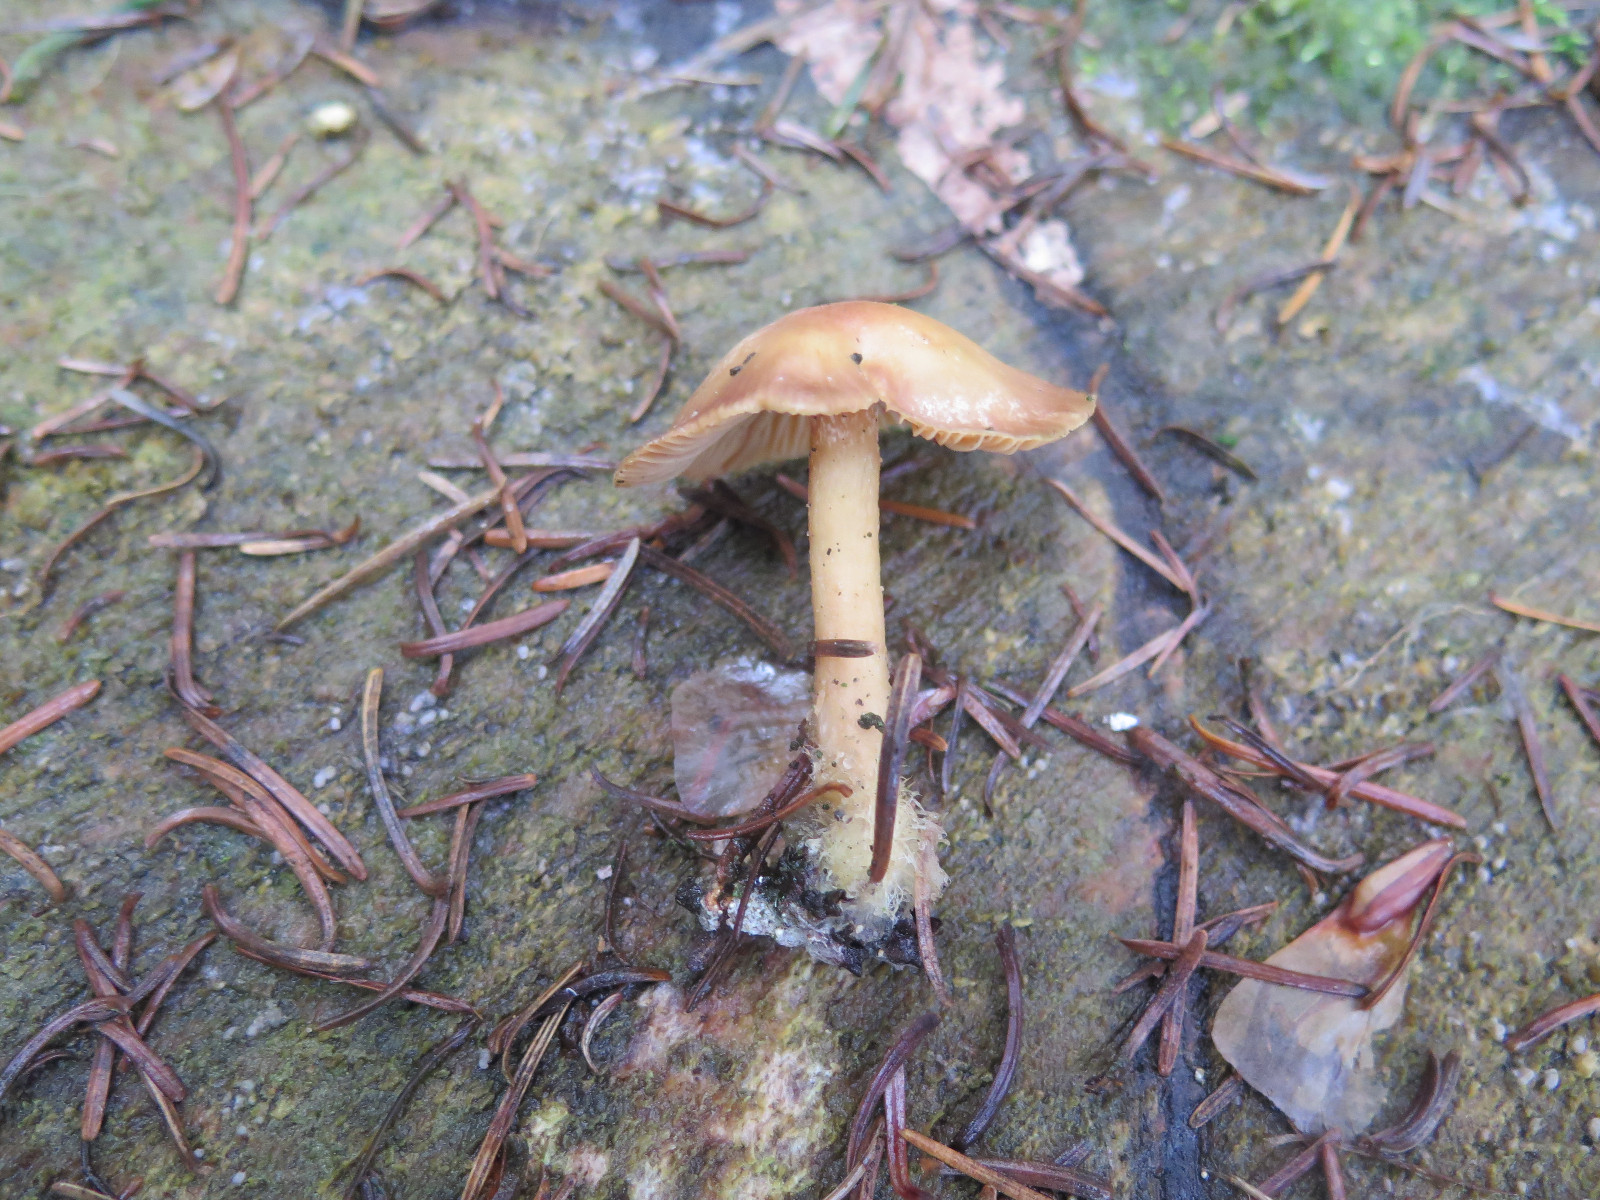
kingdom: Fungi
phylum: Basidiomycota
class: Agaricomycetes
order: Agaricales
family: Omphalotaceae
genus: Collybiopsis
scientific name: Collybiopsis peronata
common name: bestøvlet fladhat
